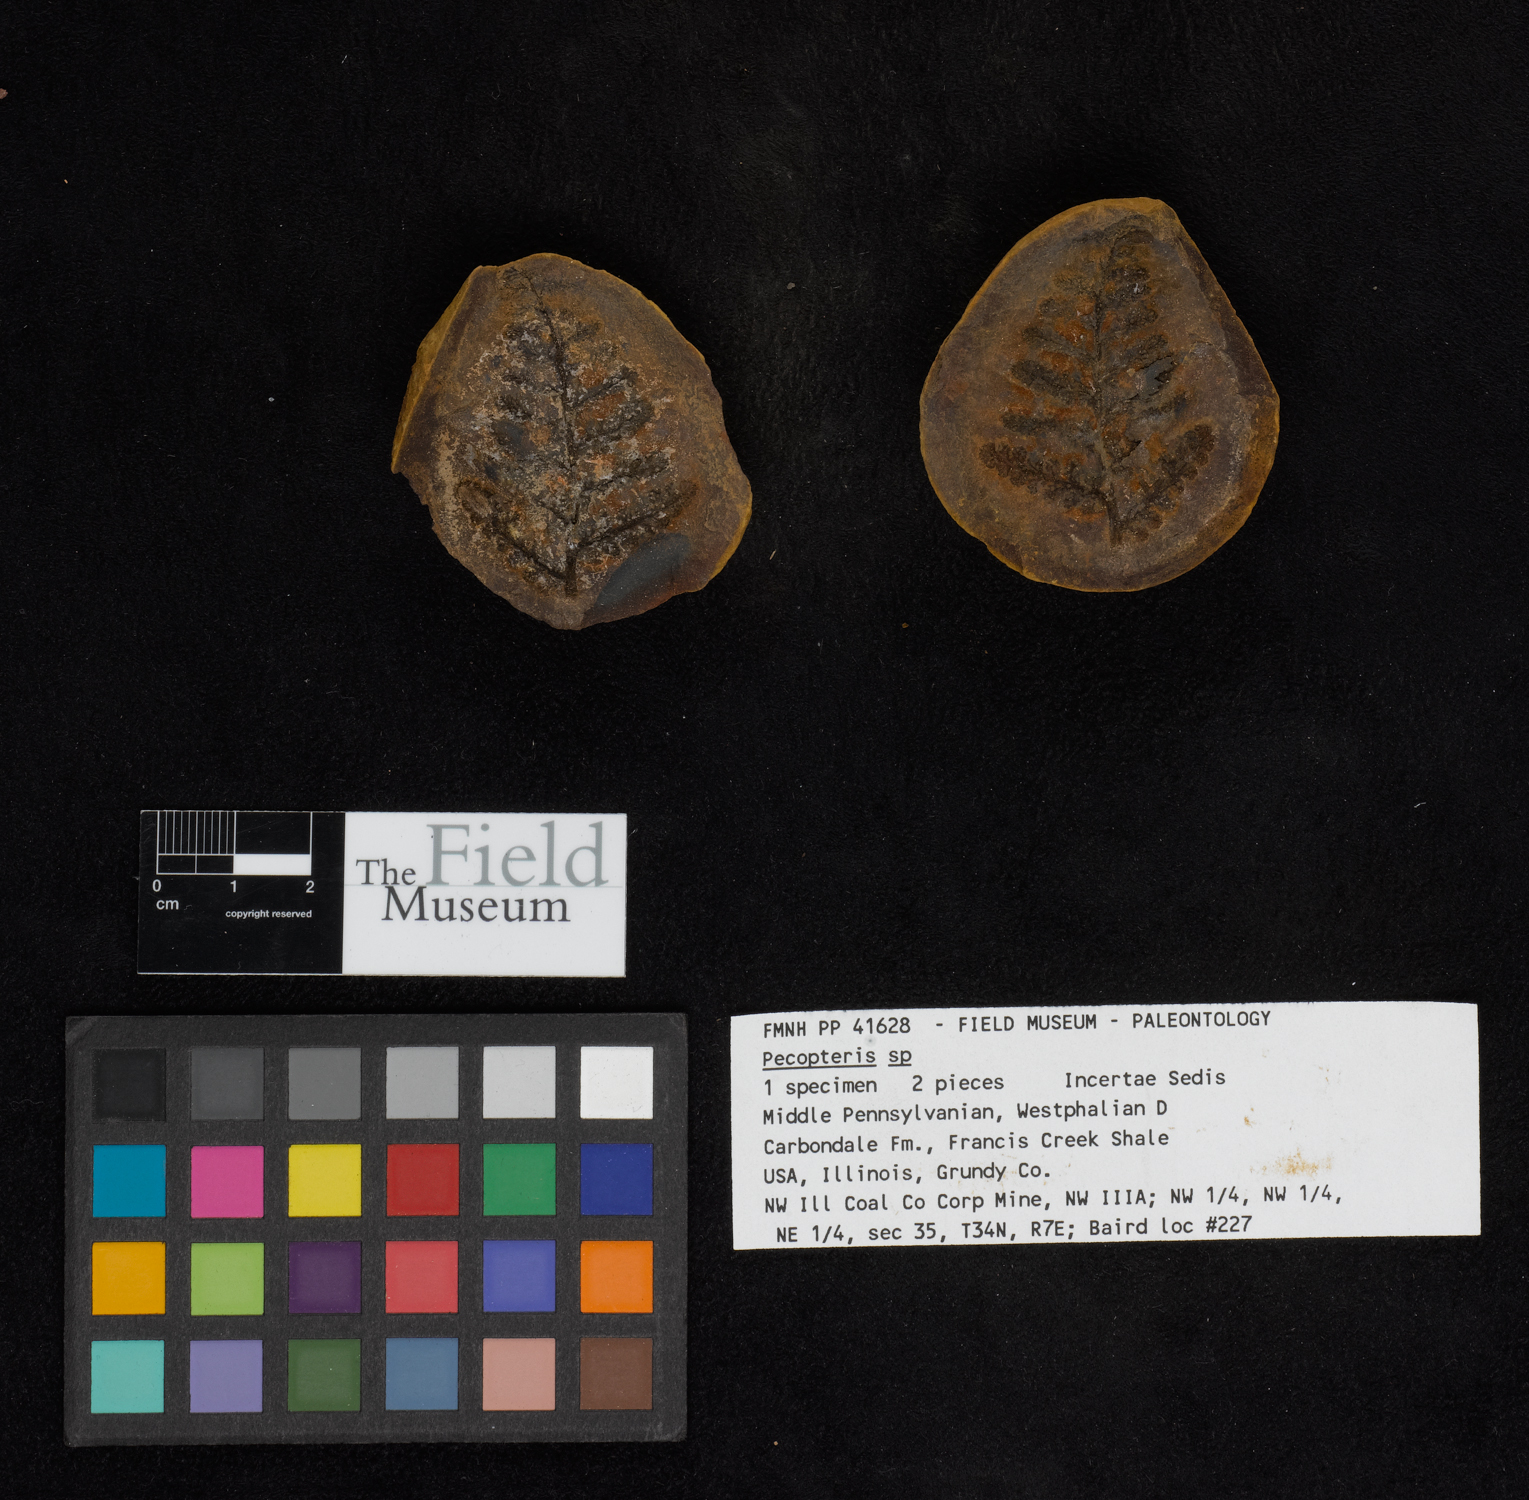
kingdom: Plantae
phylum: Tracheophyta
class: Polypodiopsida
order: Marattiales
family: Asterothecaceae
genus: Pecopteris
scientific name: Pecopteris
